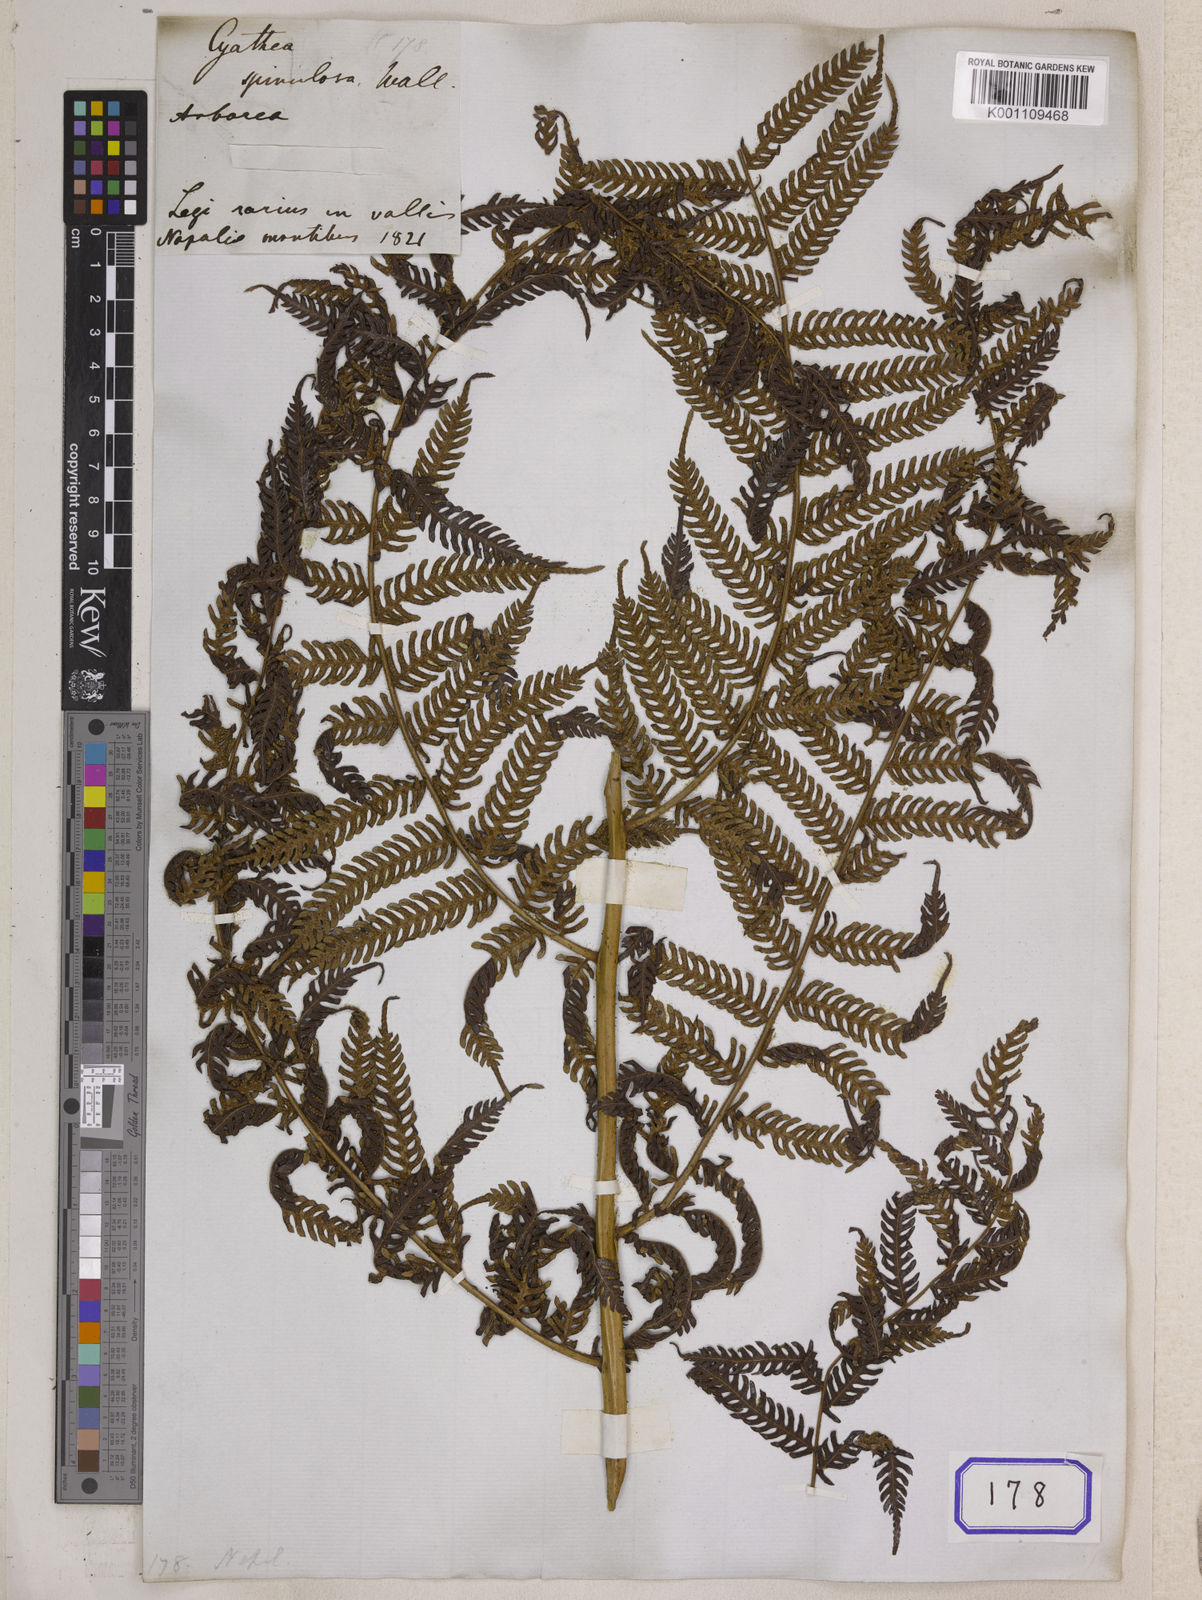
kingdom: Plantae
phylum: Tracheophyta
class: Polypodiopsida
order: Cyatheales
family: Cyatheaceae
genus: Cyathea
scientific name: Cyathea
